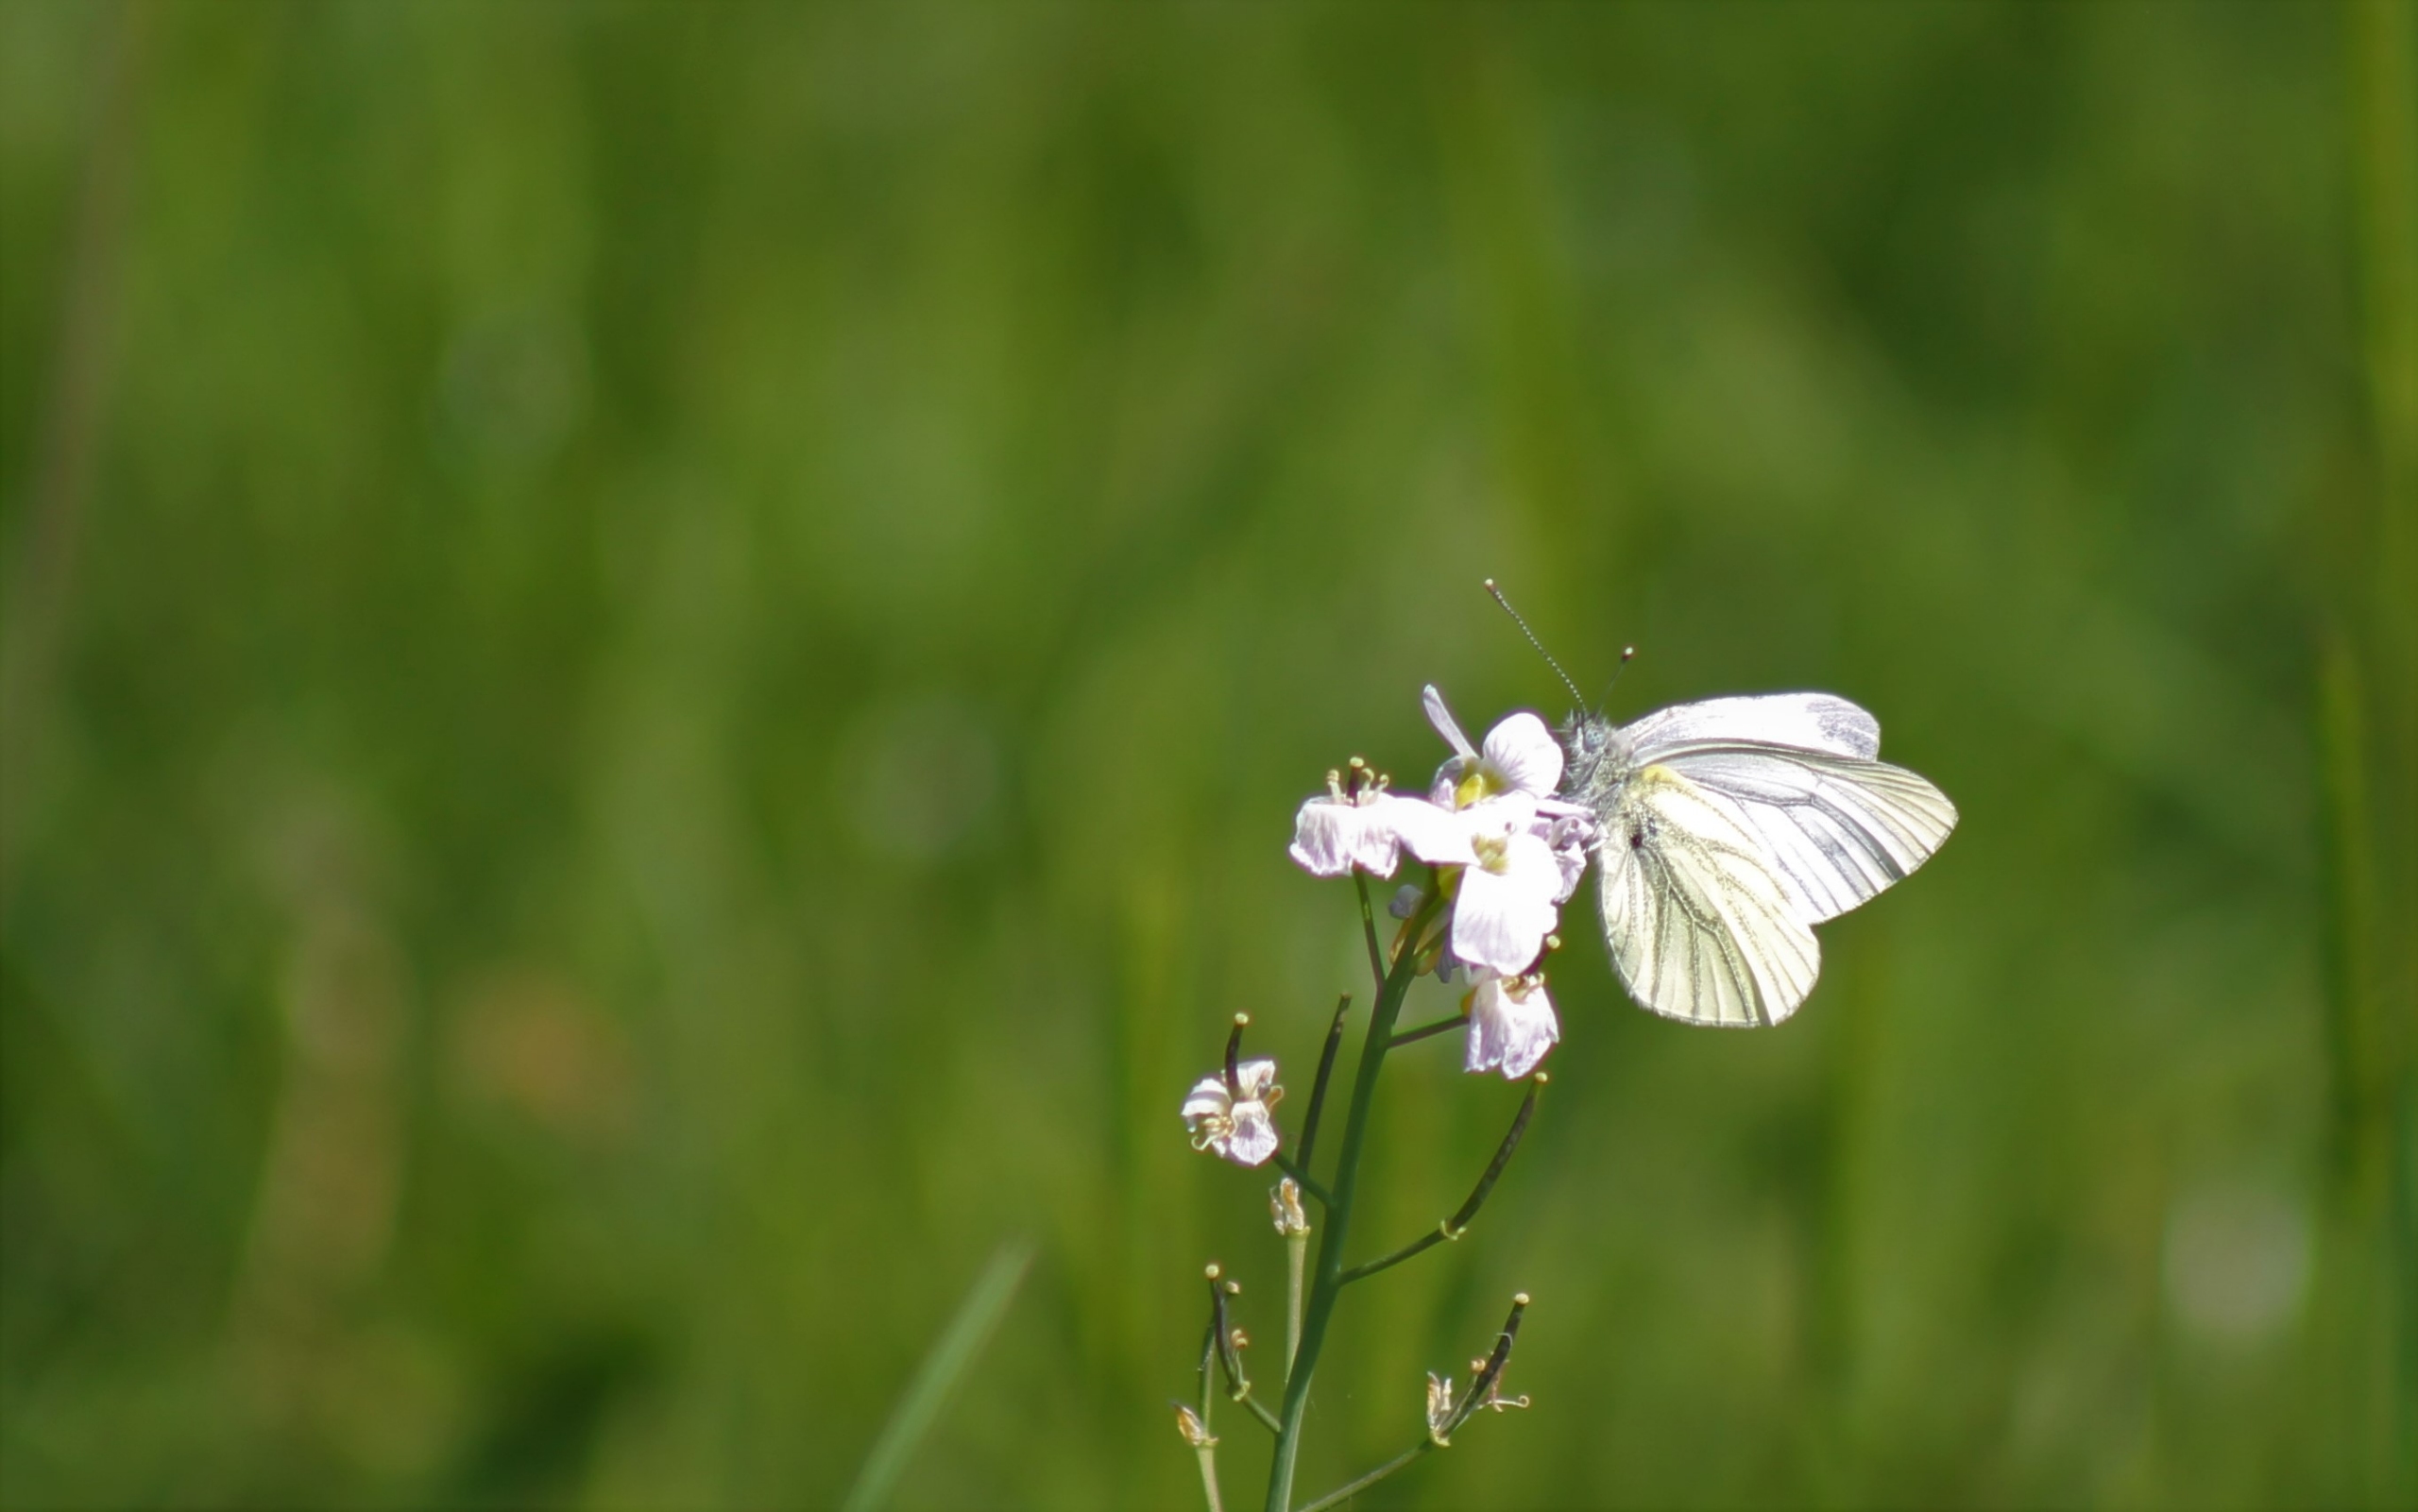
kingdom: Animalia
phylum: Arthropoda
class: Insecta
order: Lepidoptera
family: Pieridae
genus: Pieris
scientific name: Pieris napi
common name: Grønåret kålsommerfugl
